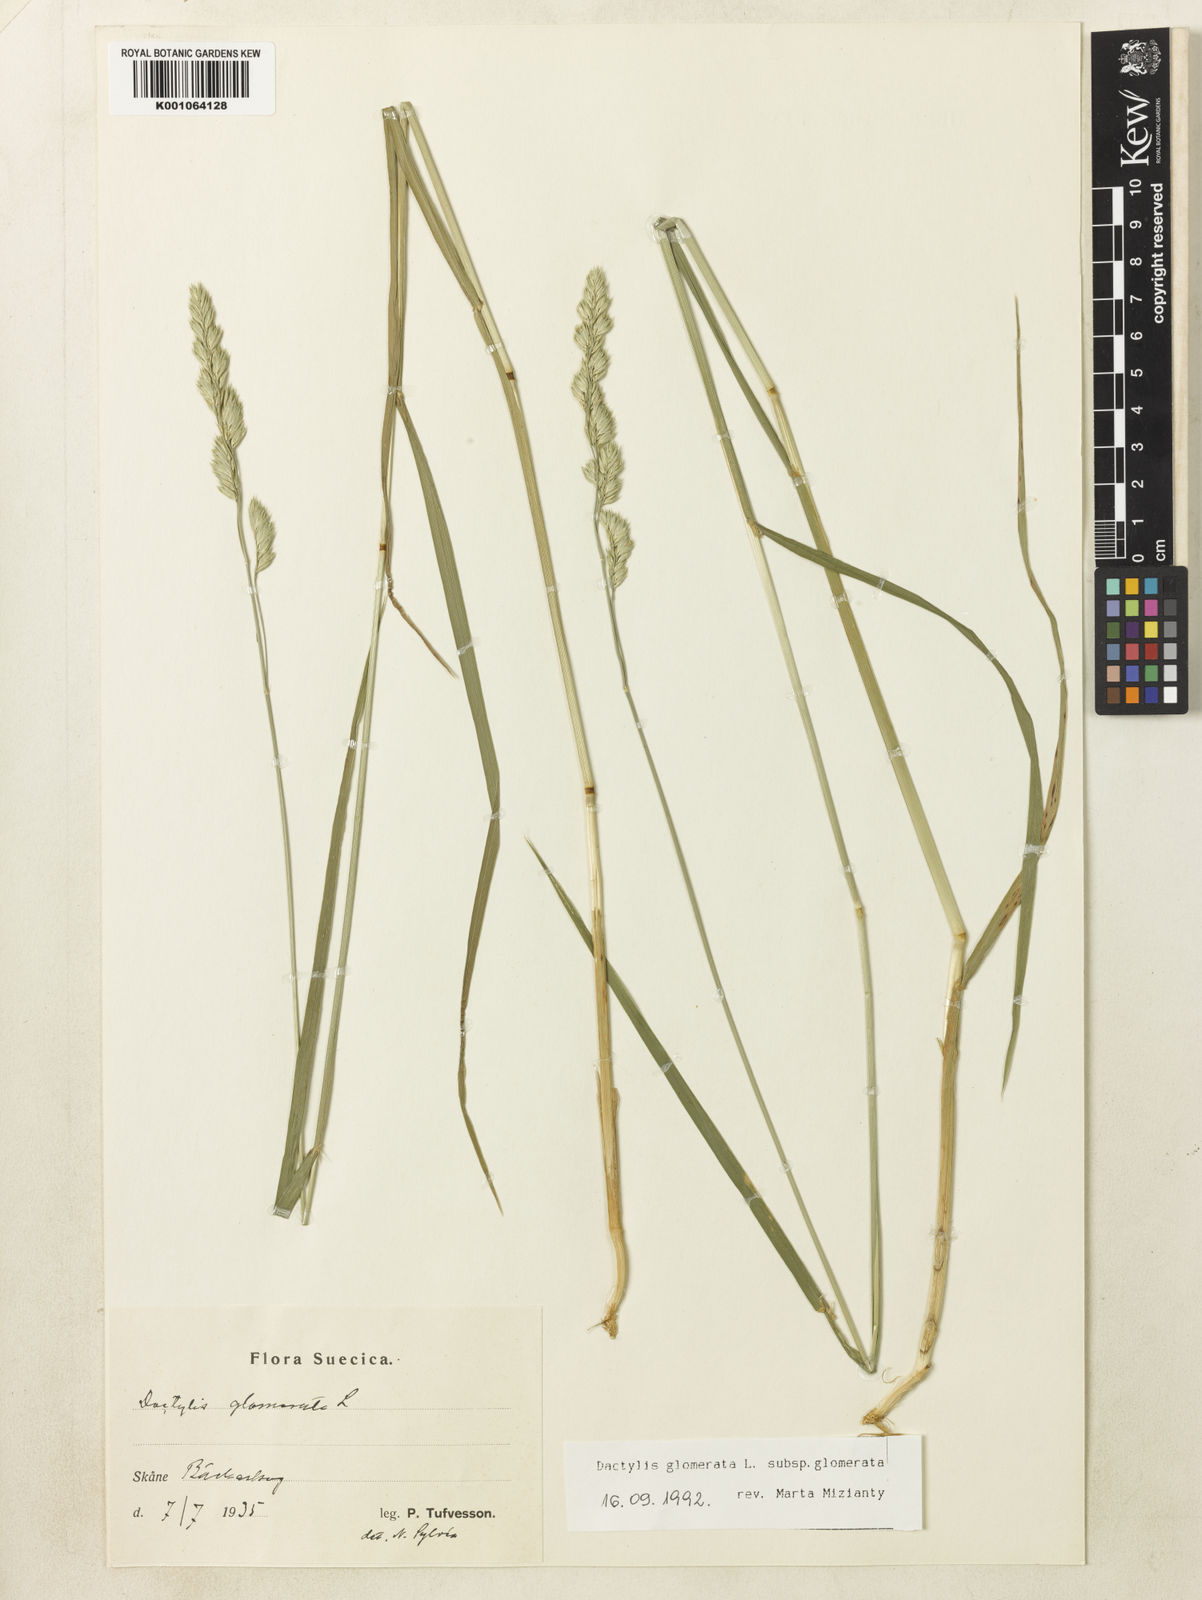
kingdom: Plantae
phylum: Tracheophyta
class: Liliopsida
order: Poales
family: Poaceae
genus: Dactylis
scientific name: Dactylis glomerata
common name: Orchardgrass
